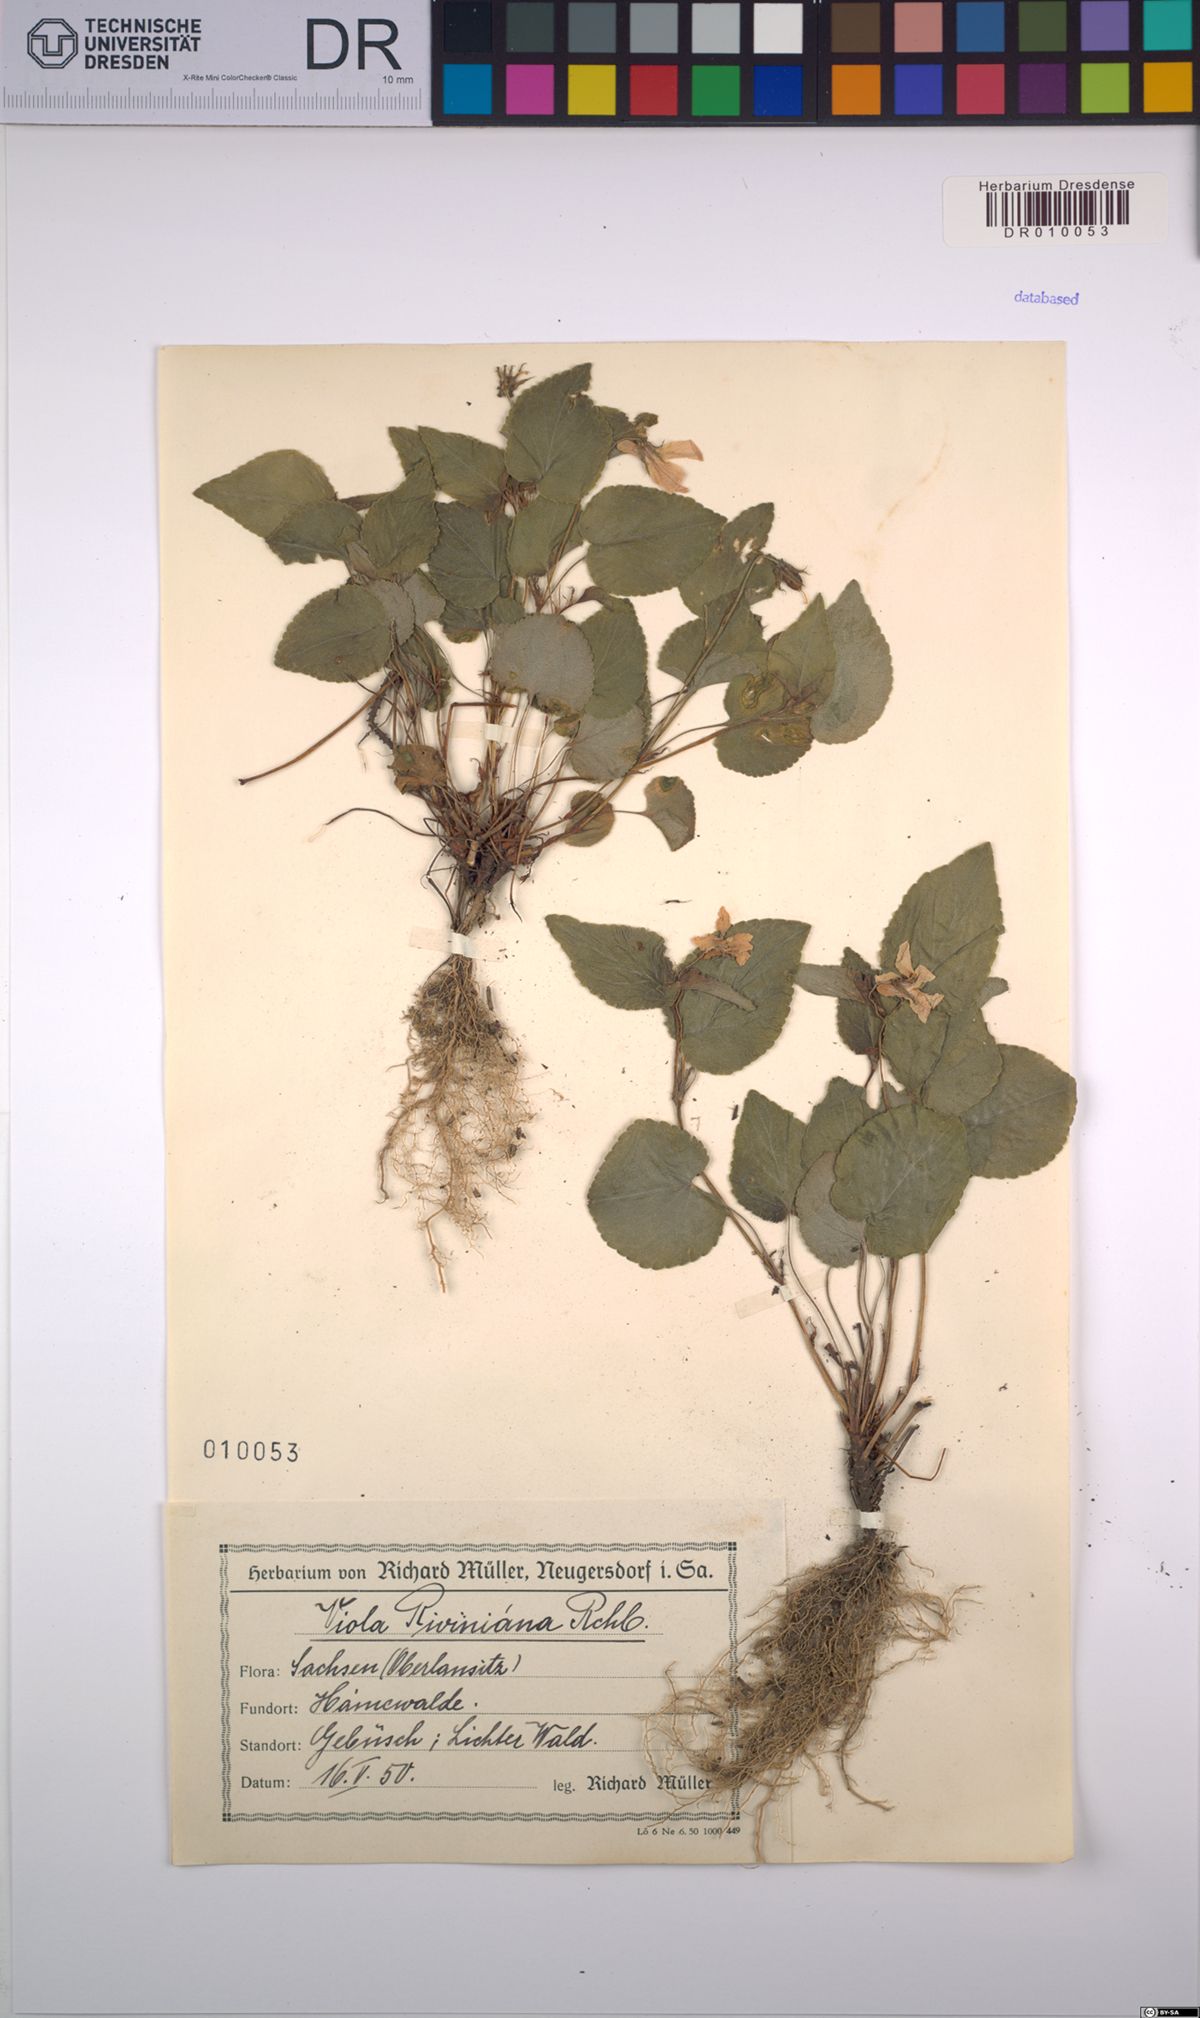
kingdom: Plantae
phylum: Tracheophyta
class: Magnoliopsida
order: Malpighiales
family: Violaceae
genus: Viola
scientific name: Viola riviniana
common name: Common dog-violet
